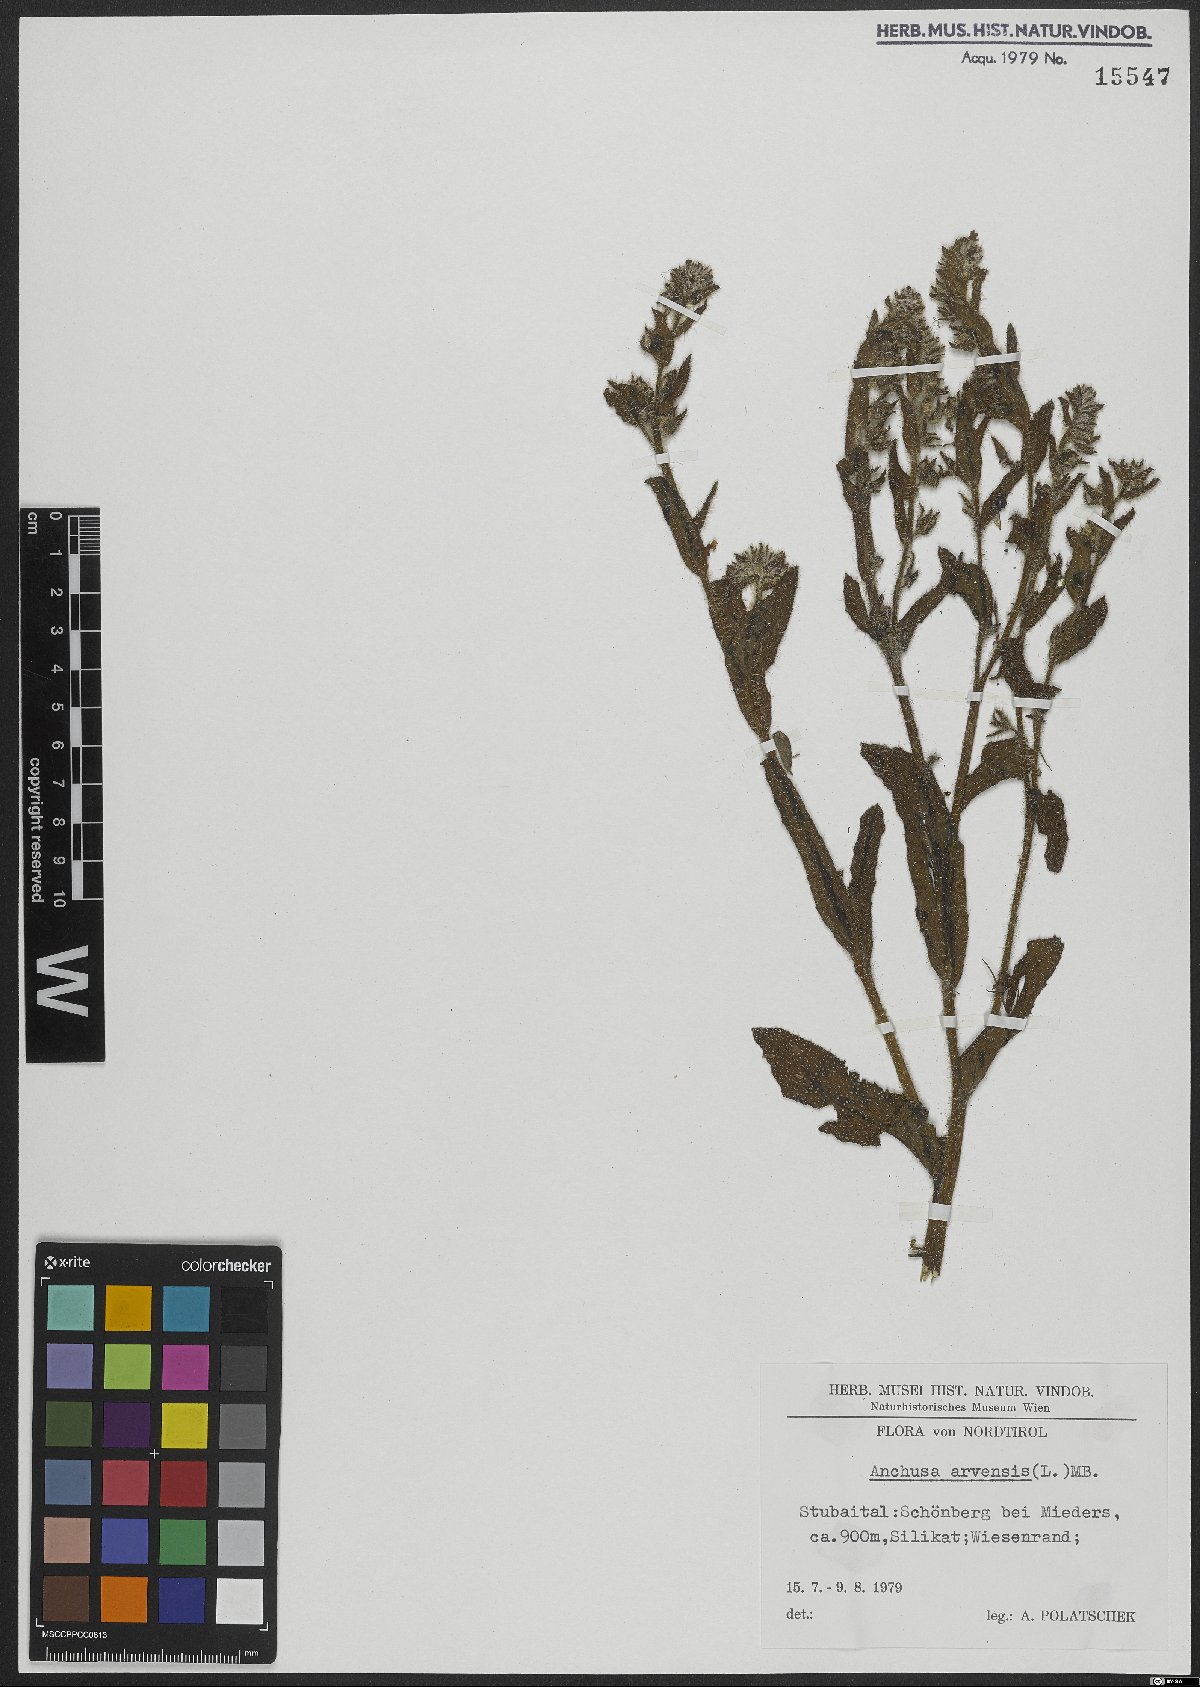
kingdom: Plantae
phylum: Tracheophyta
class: Magnoliopsida
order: Boraginales
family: Boraginaceae
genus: Lycopsis
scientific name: Lycopsis arvensis
